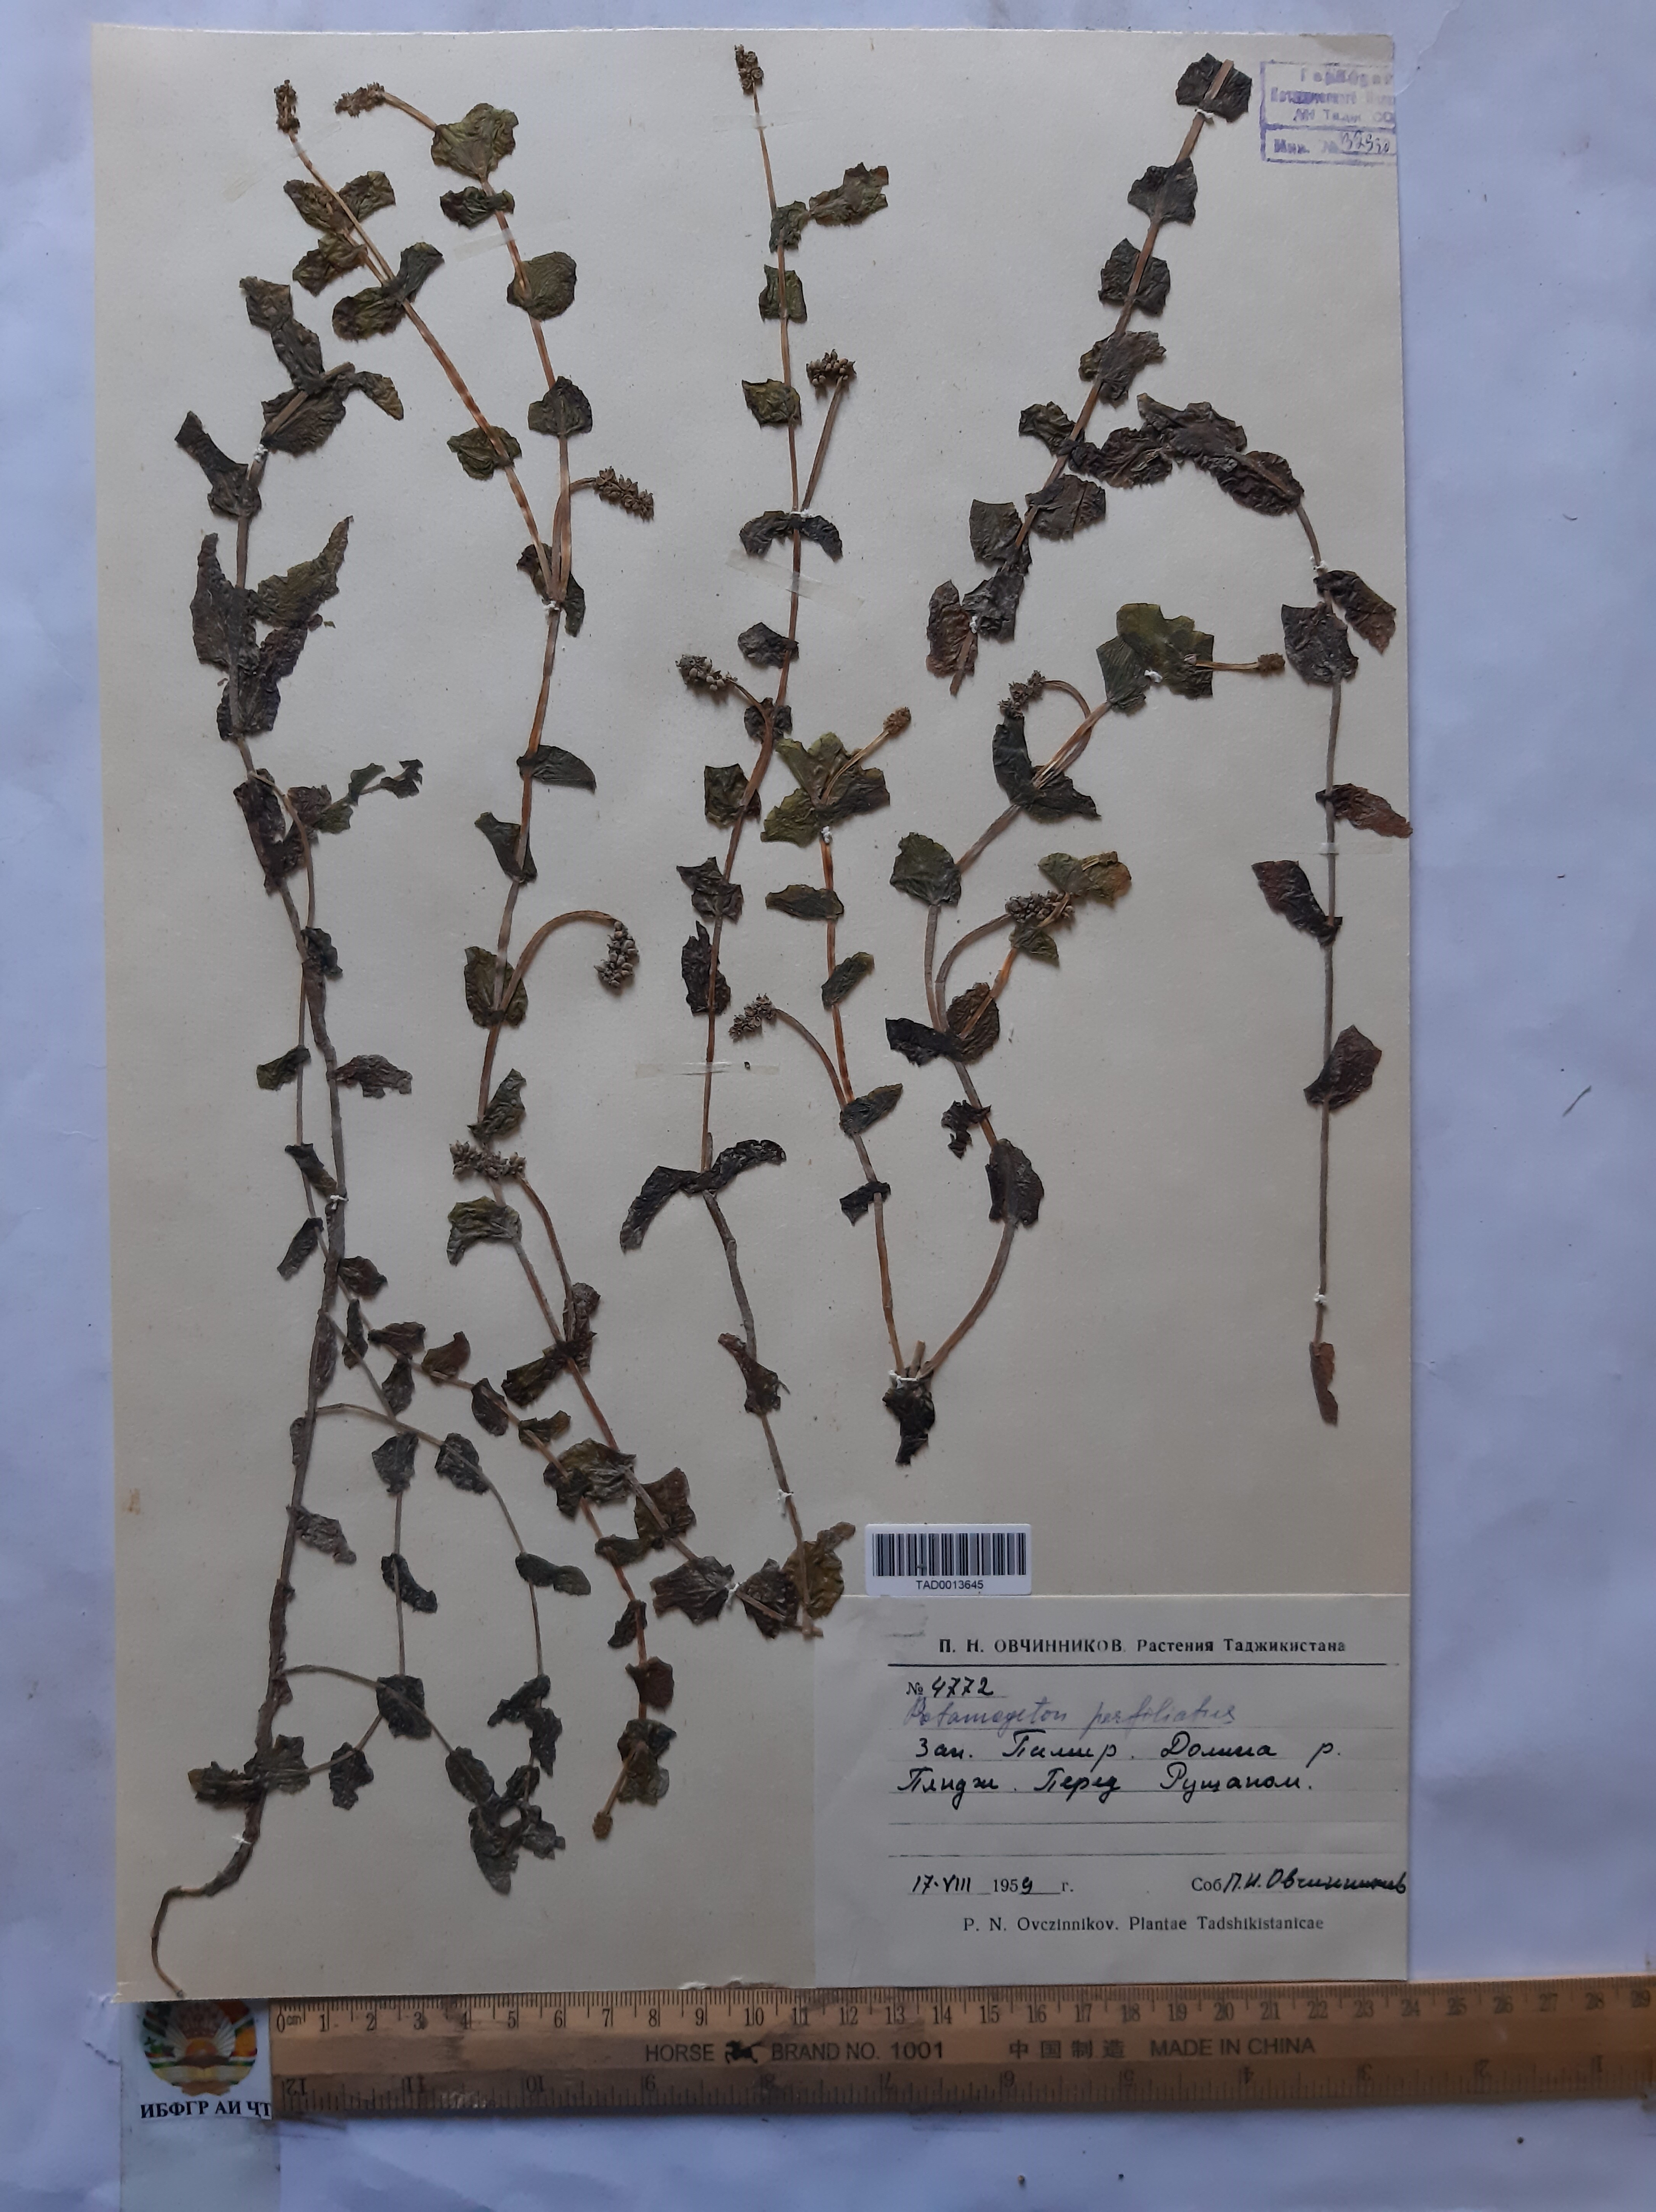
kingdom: Plantae
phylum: Tracheophyta
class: Liliopsida
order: Alismatales
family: Potamogetonaceae
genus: Potamogeton
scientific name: Potamogeton perfoliatus
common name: Perfoliate pondweed
